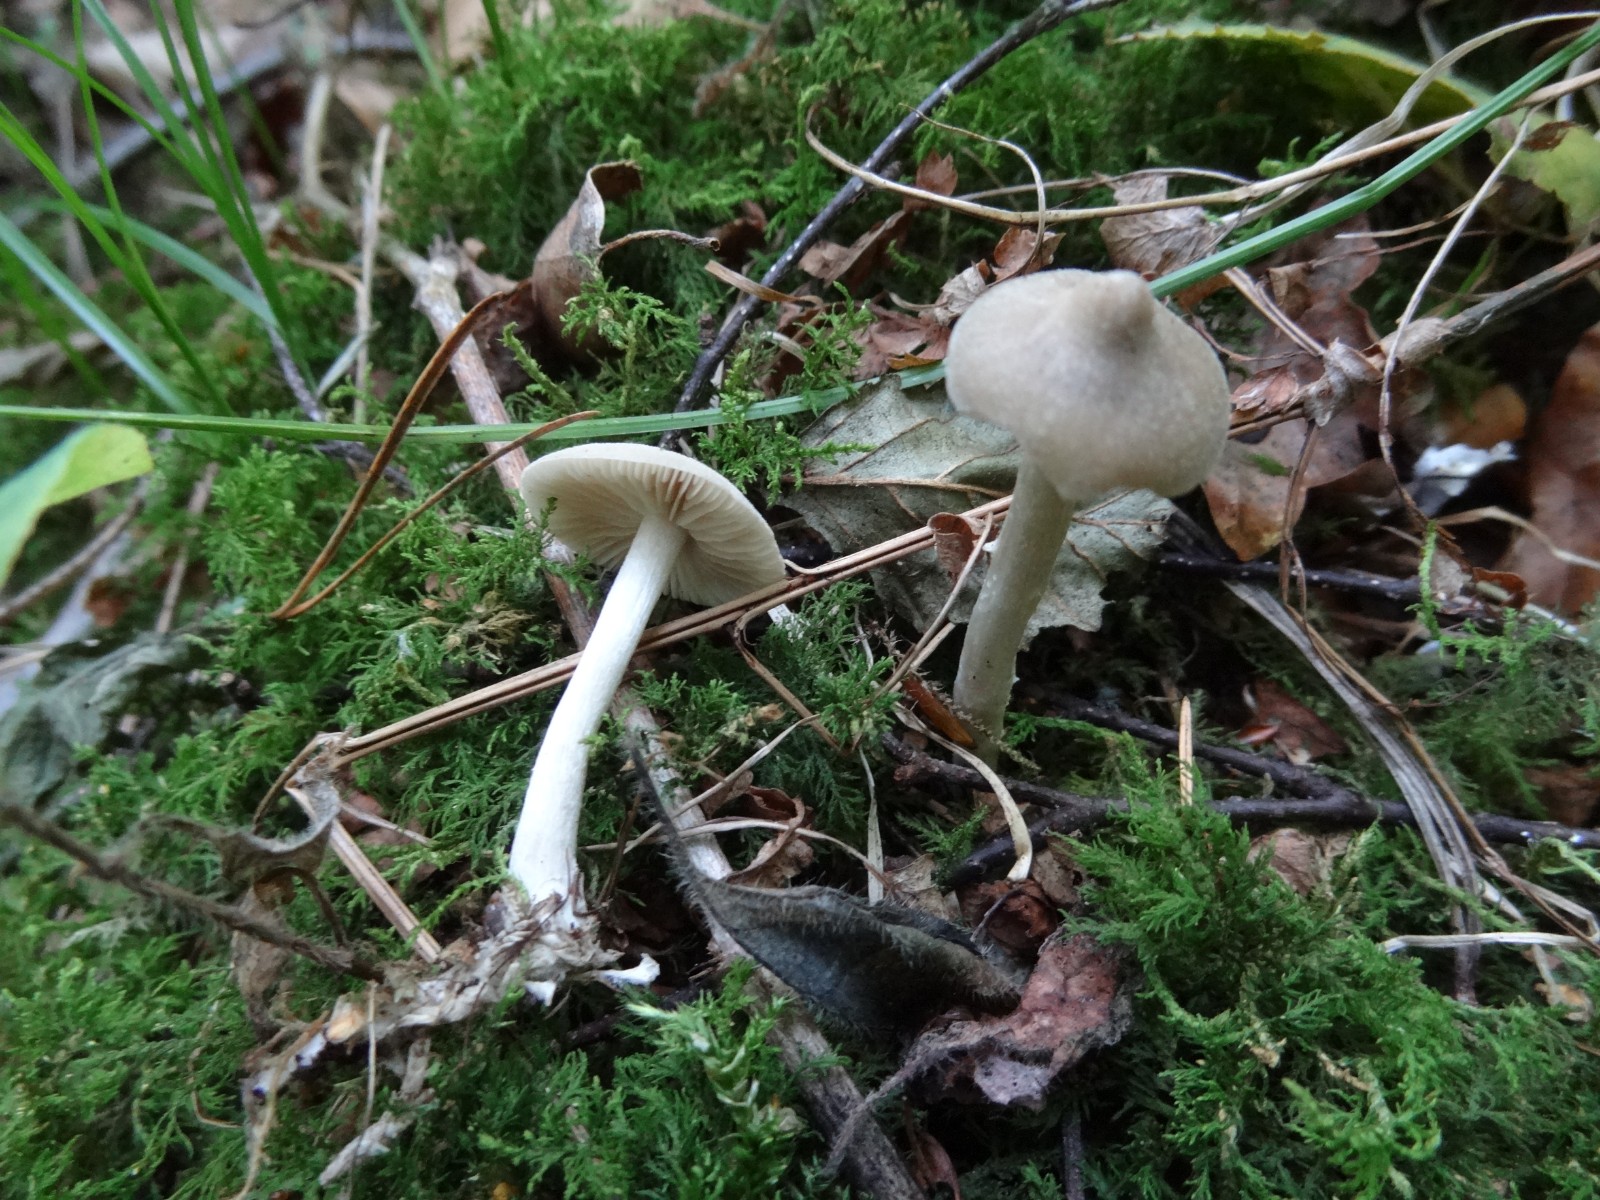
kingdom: Fungi
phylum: Basidiomycota
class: Agaricomycetes
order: Agaricales
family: Entolomataceae
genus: Entoloma
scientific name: Entoloma sericatum
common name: rank rødblad
